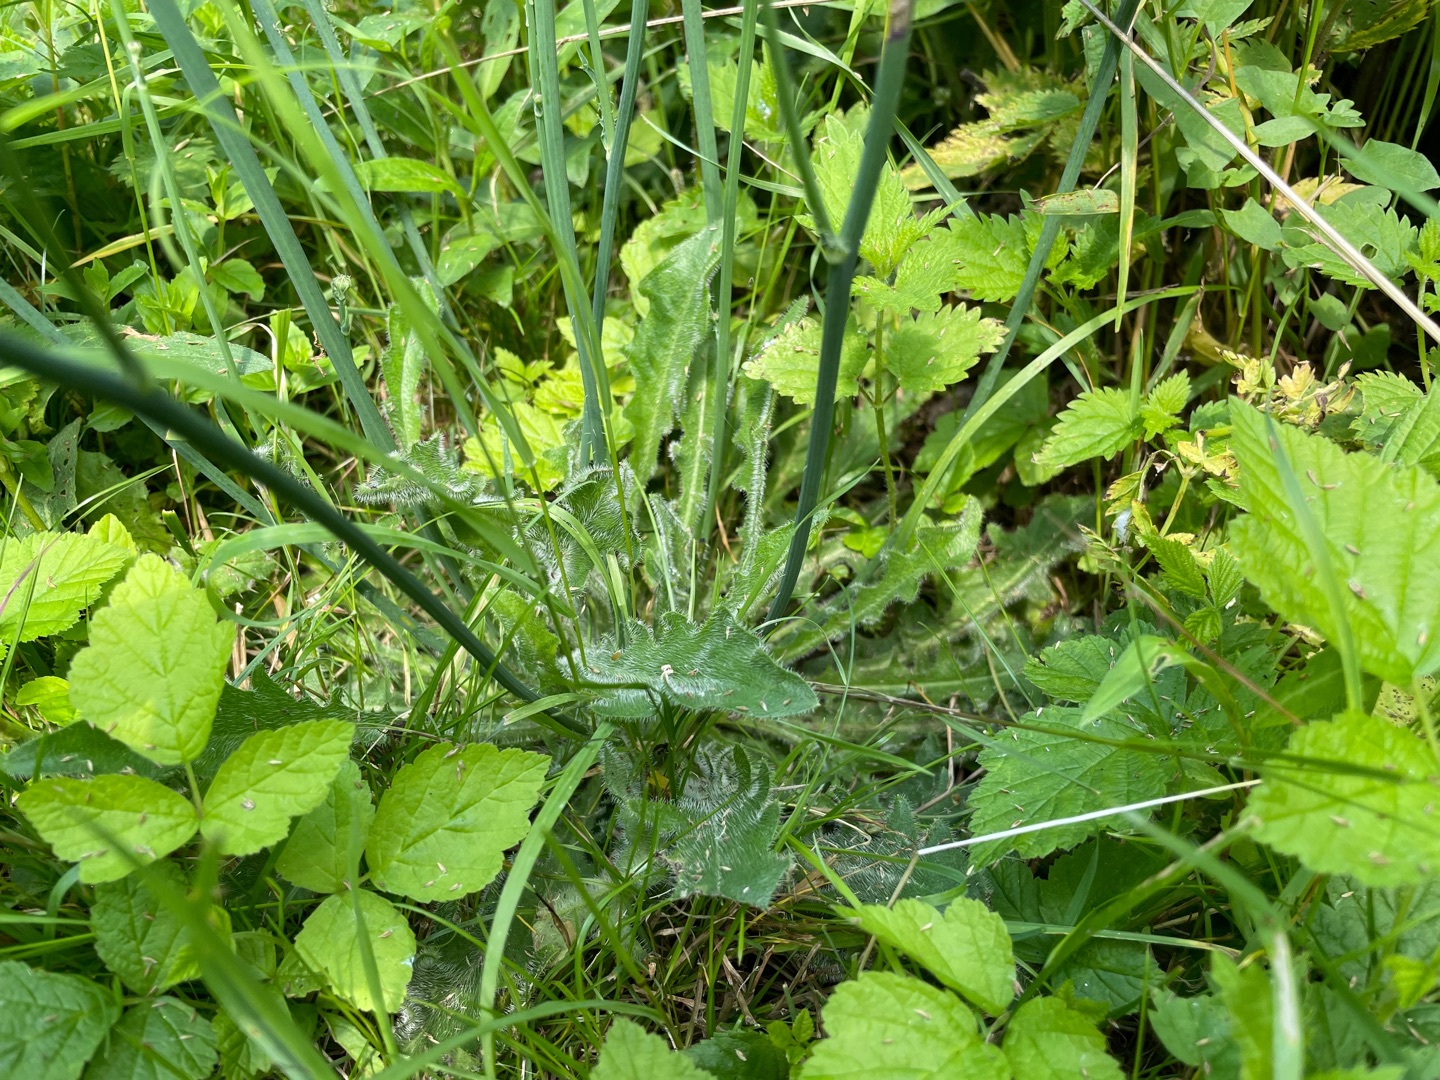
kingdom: Plantae
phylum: Tracheophyta
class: Magnoliopsida
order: Asterales
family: Asteraceae
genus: Hypochaeris
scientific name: Hypochaeris radicata
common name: Almindelig kongepen
